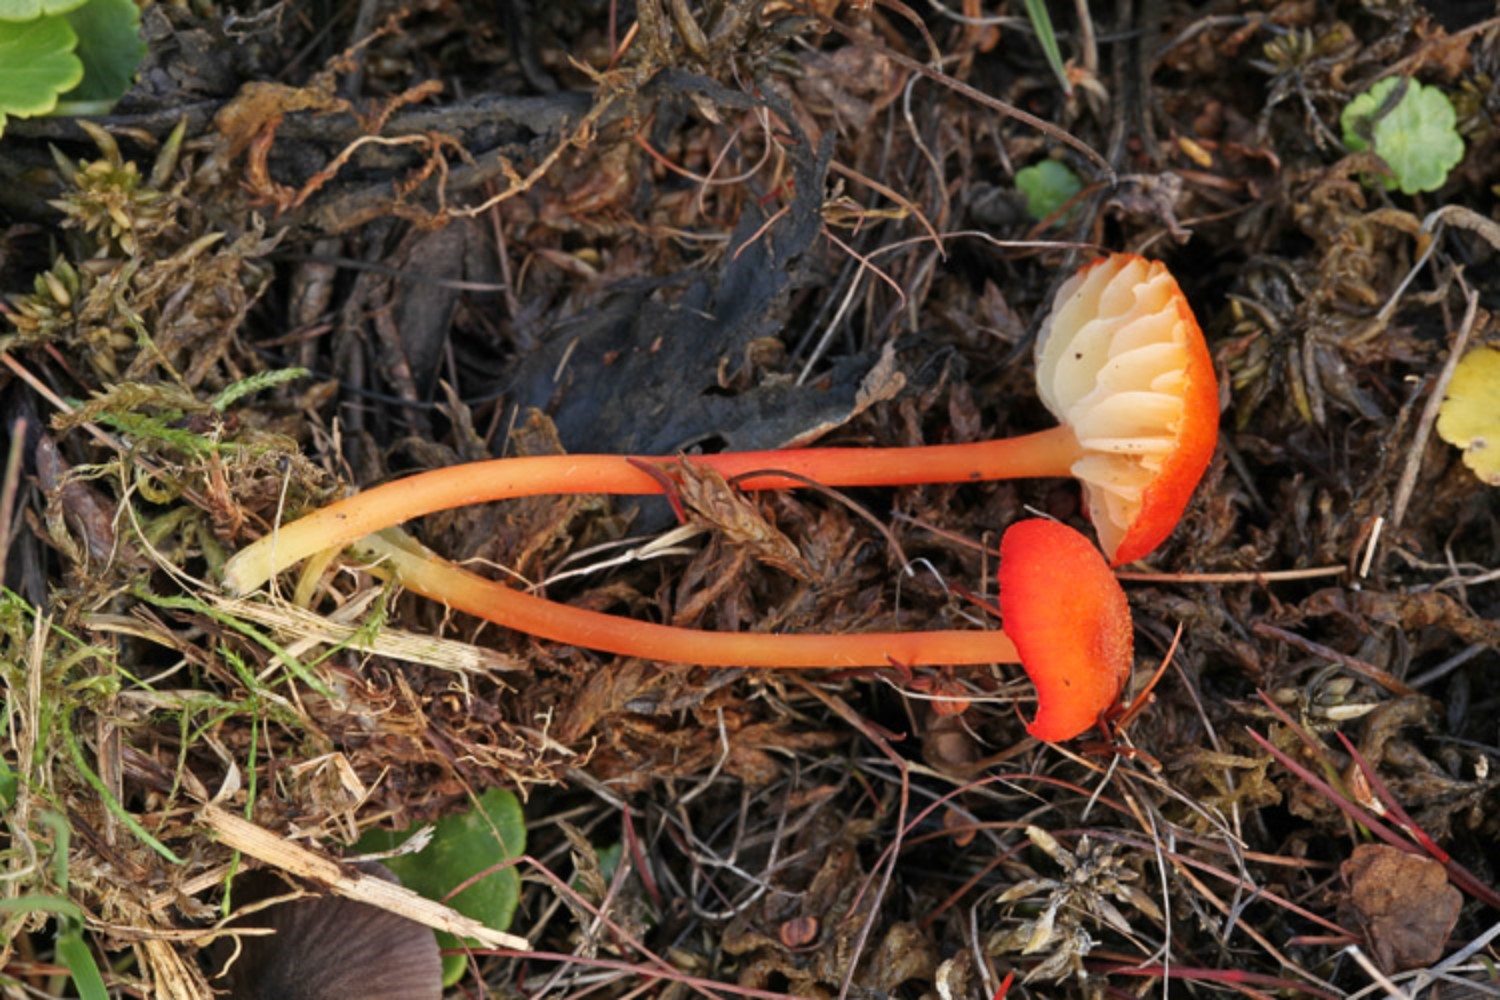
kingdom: Fungi
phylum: Basidiomycota
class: Agaricomycetes
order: Agaricales
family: Hygrophoraceae
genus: Hygrocybe
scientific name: Hygrocybe helobia
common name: hvidløgs-vokshat
